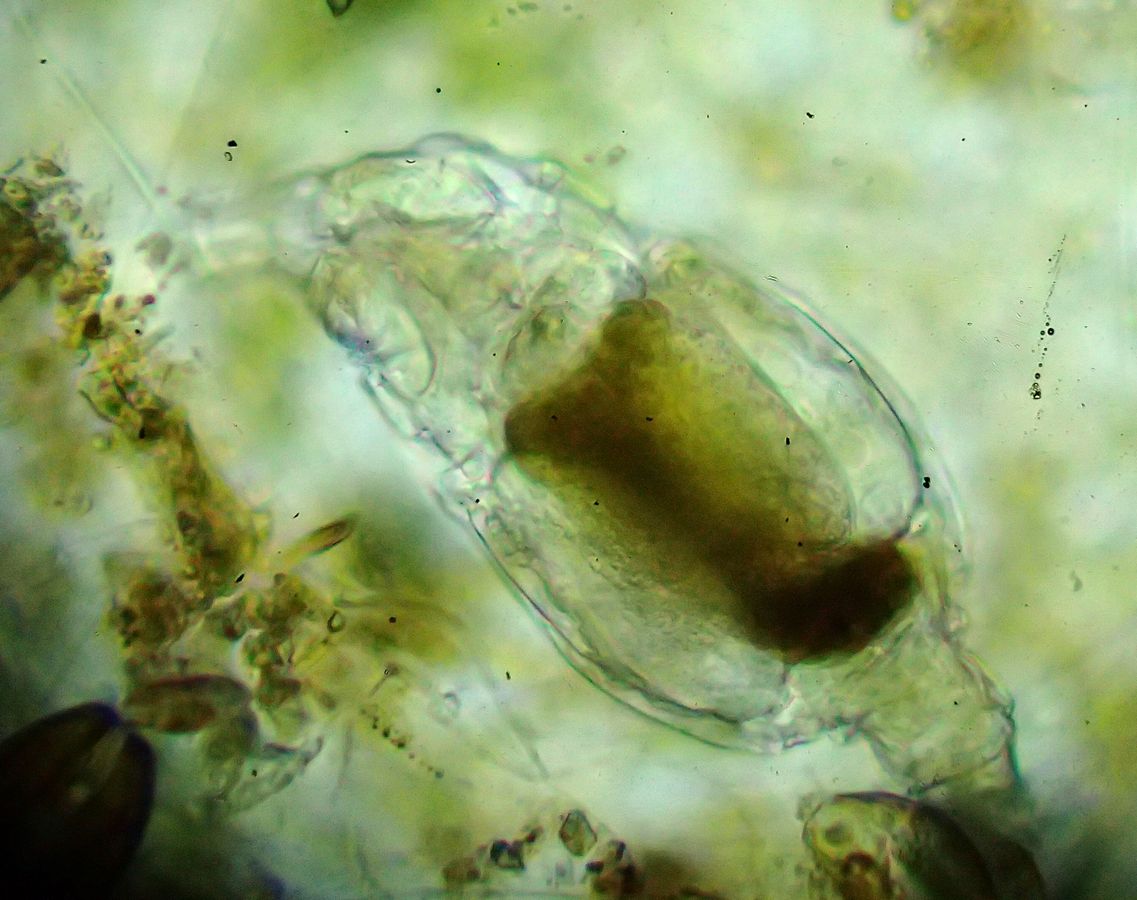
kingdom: Animalia
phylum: Rotifera
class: Eurotatoria
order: Bdelloidea
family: Philodinidae
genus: Rotaria
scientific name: Rotaria tardigrada
